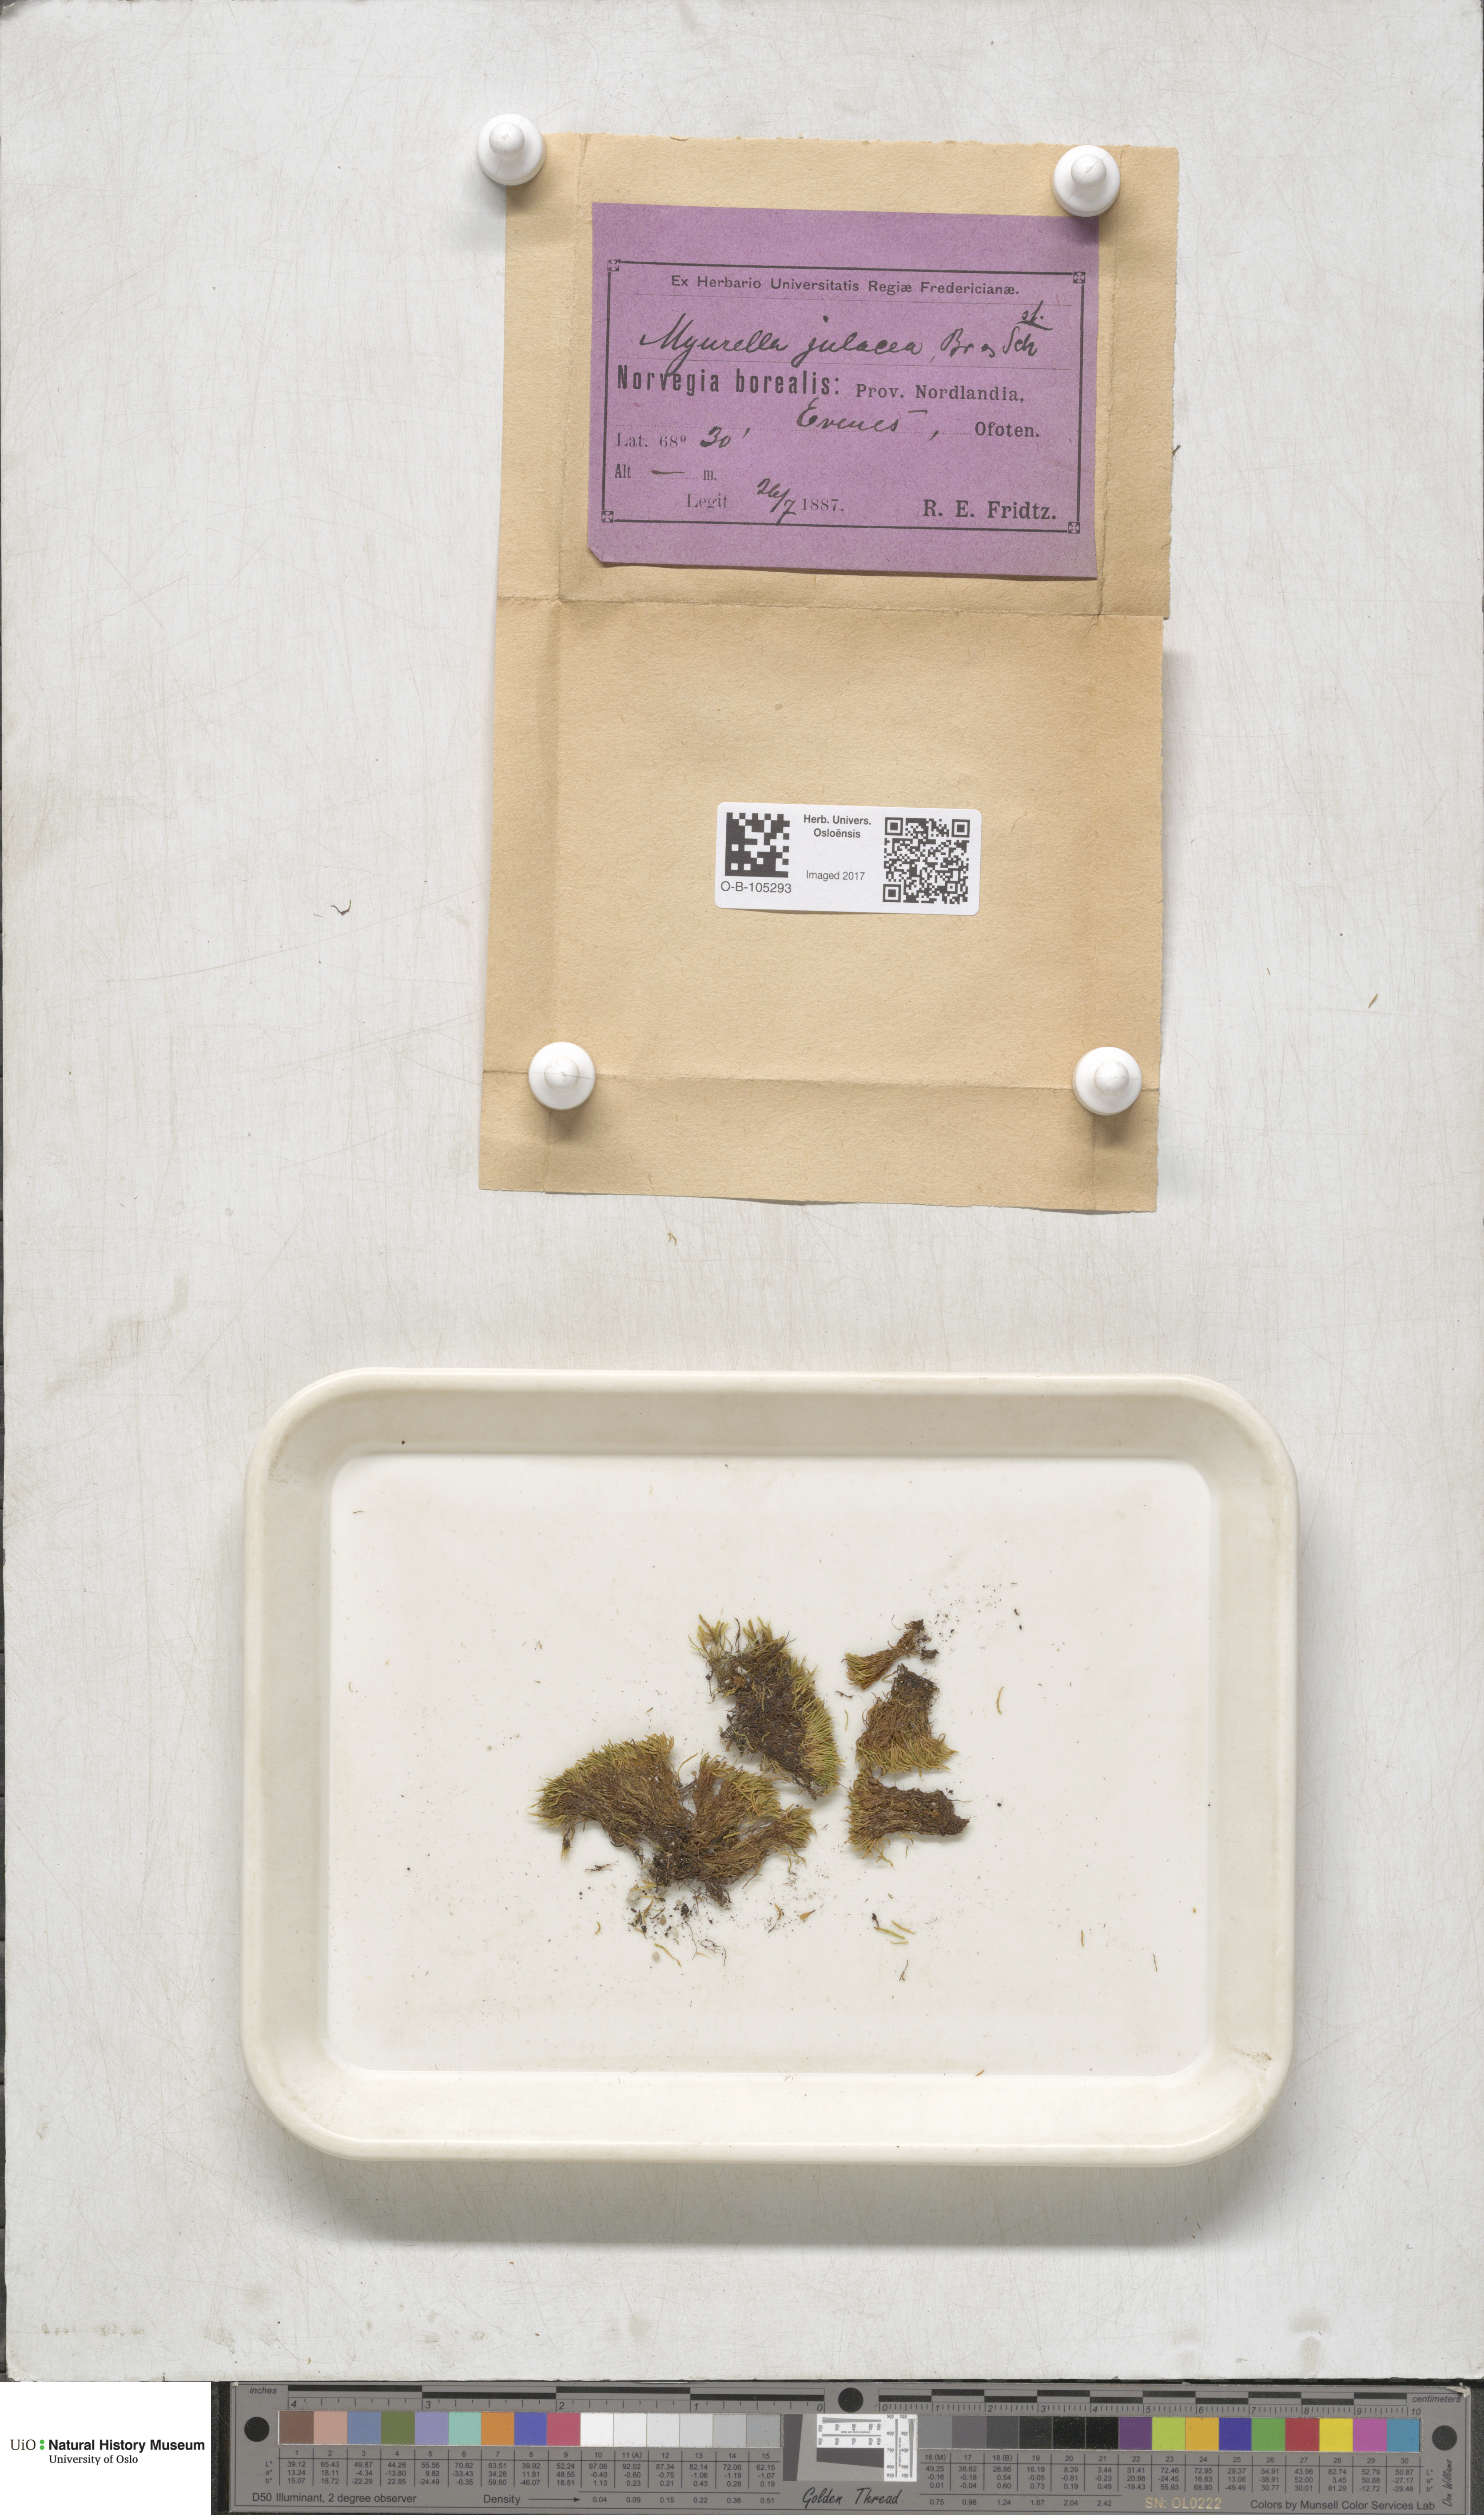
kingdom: Plantae
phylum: Bryophyta
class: Bryopsida
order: Hypnales
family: Plagiotheciaceae
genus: Myurella
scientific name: Myurella julacea
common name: Small mousetail moss
